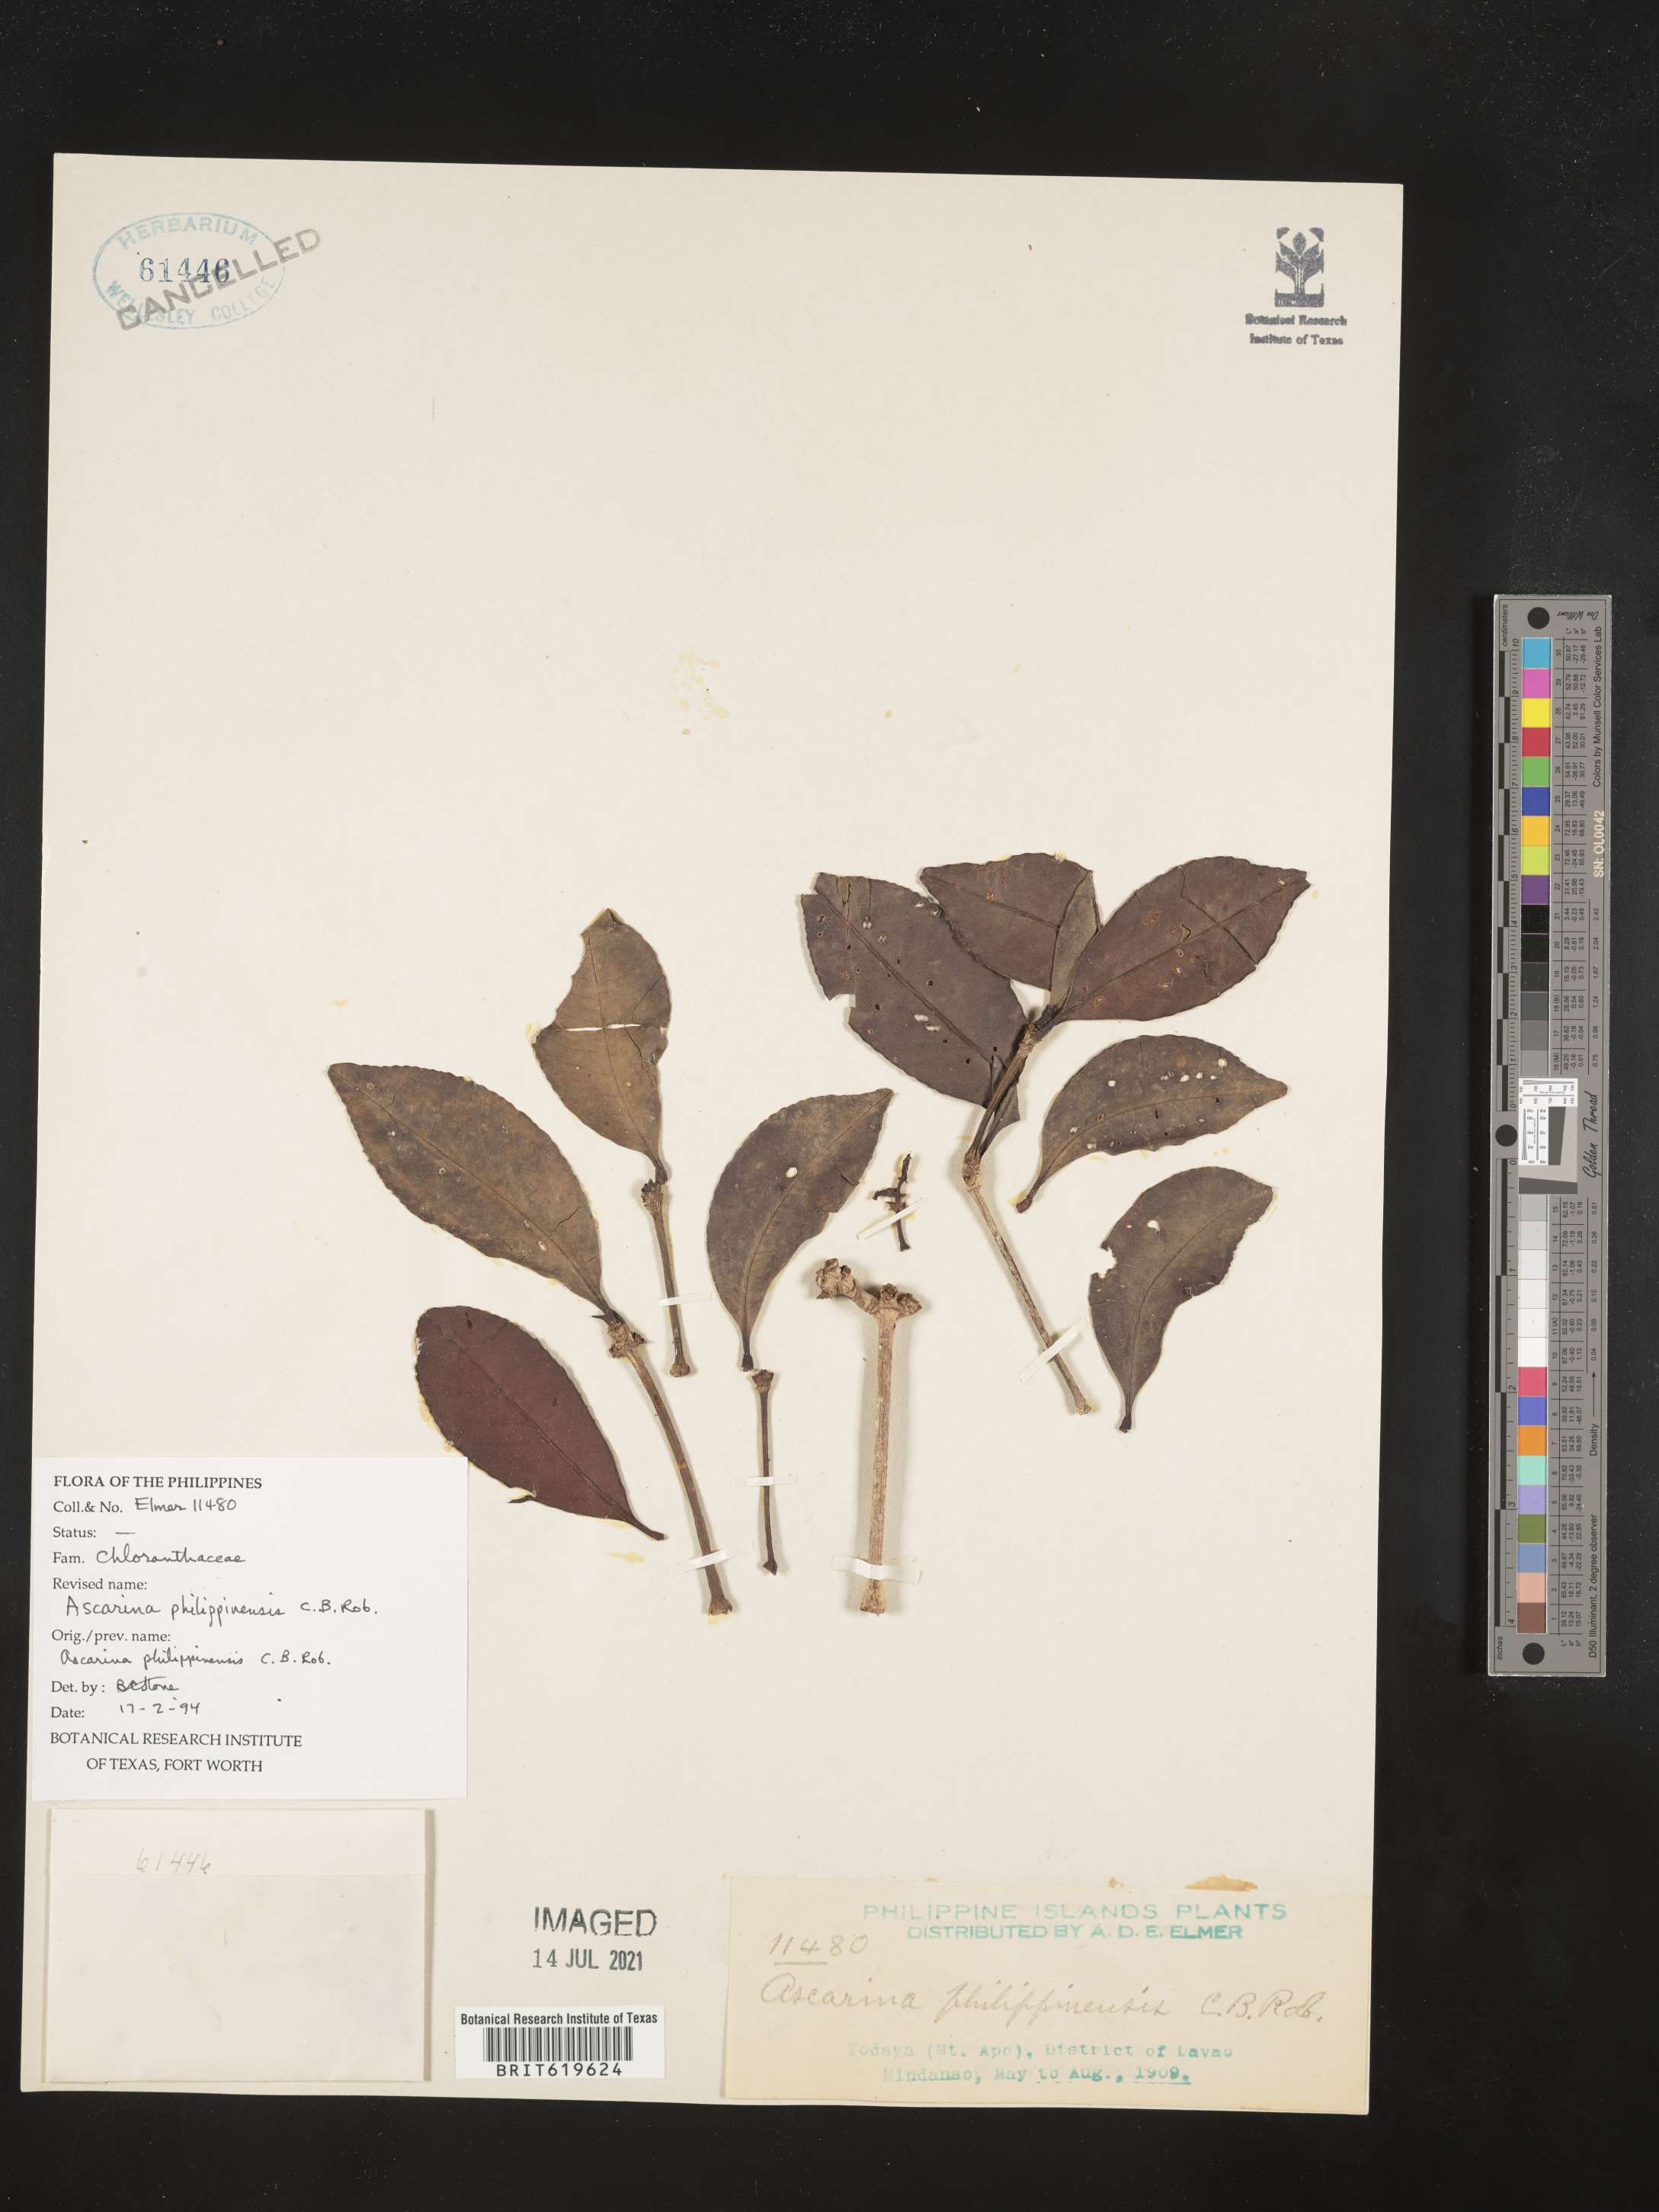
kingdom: Plantae
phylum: Tracheophyta
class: Magnoliopsida
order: Chloranthales
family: Chloranthaceae
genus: Ascarina
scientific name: Ascarina philippinensis
